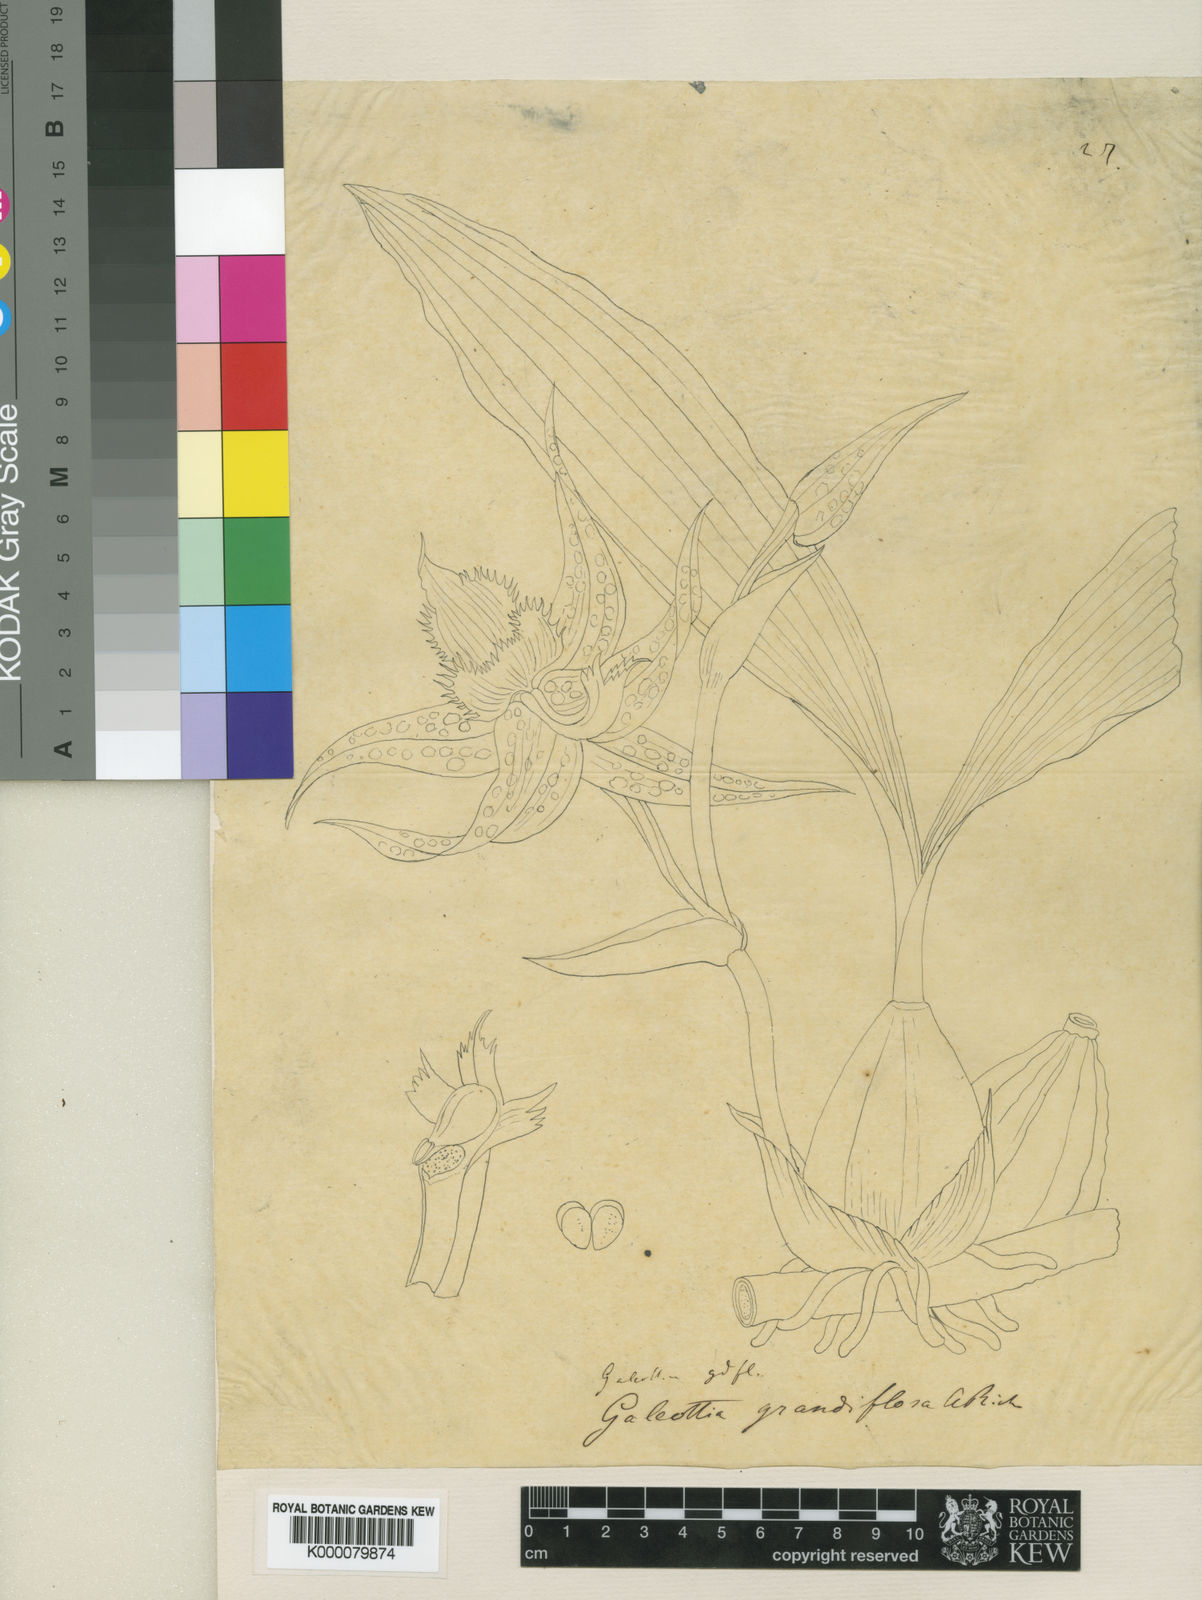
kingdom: Plantae
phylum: Tracheophyta
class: Liliopsida
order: Asparagales
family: Orchidaceae
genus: Galeottia
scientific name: Galeottia grandiflora
